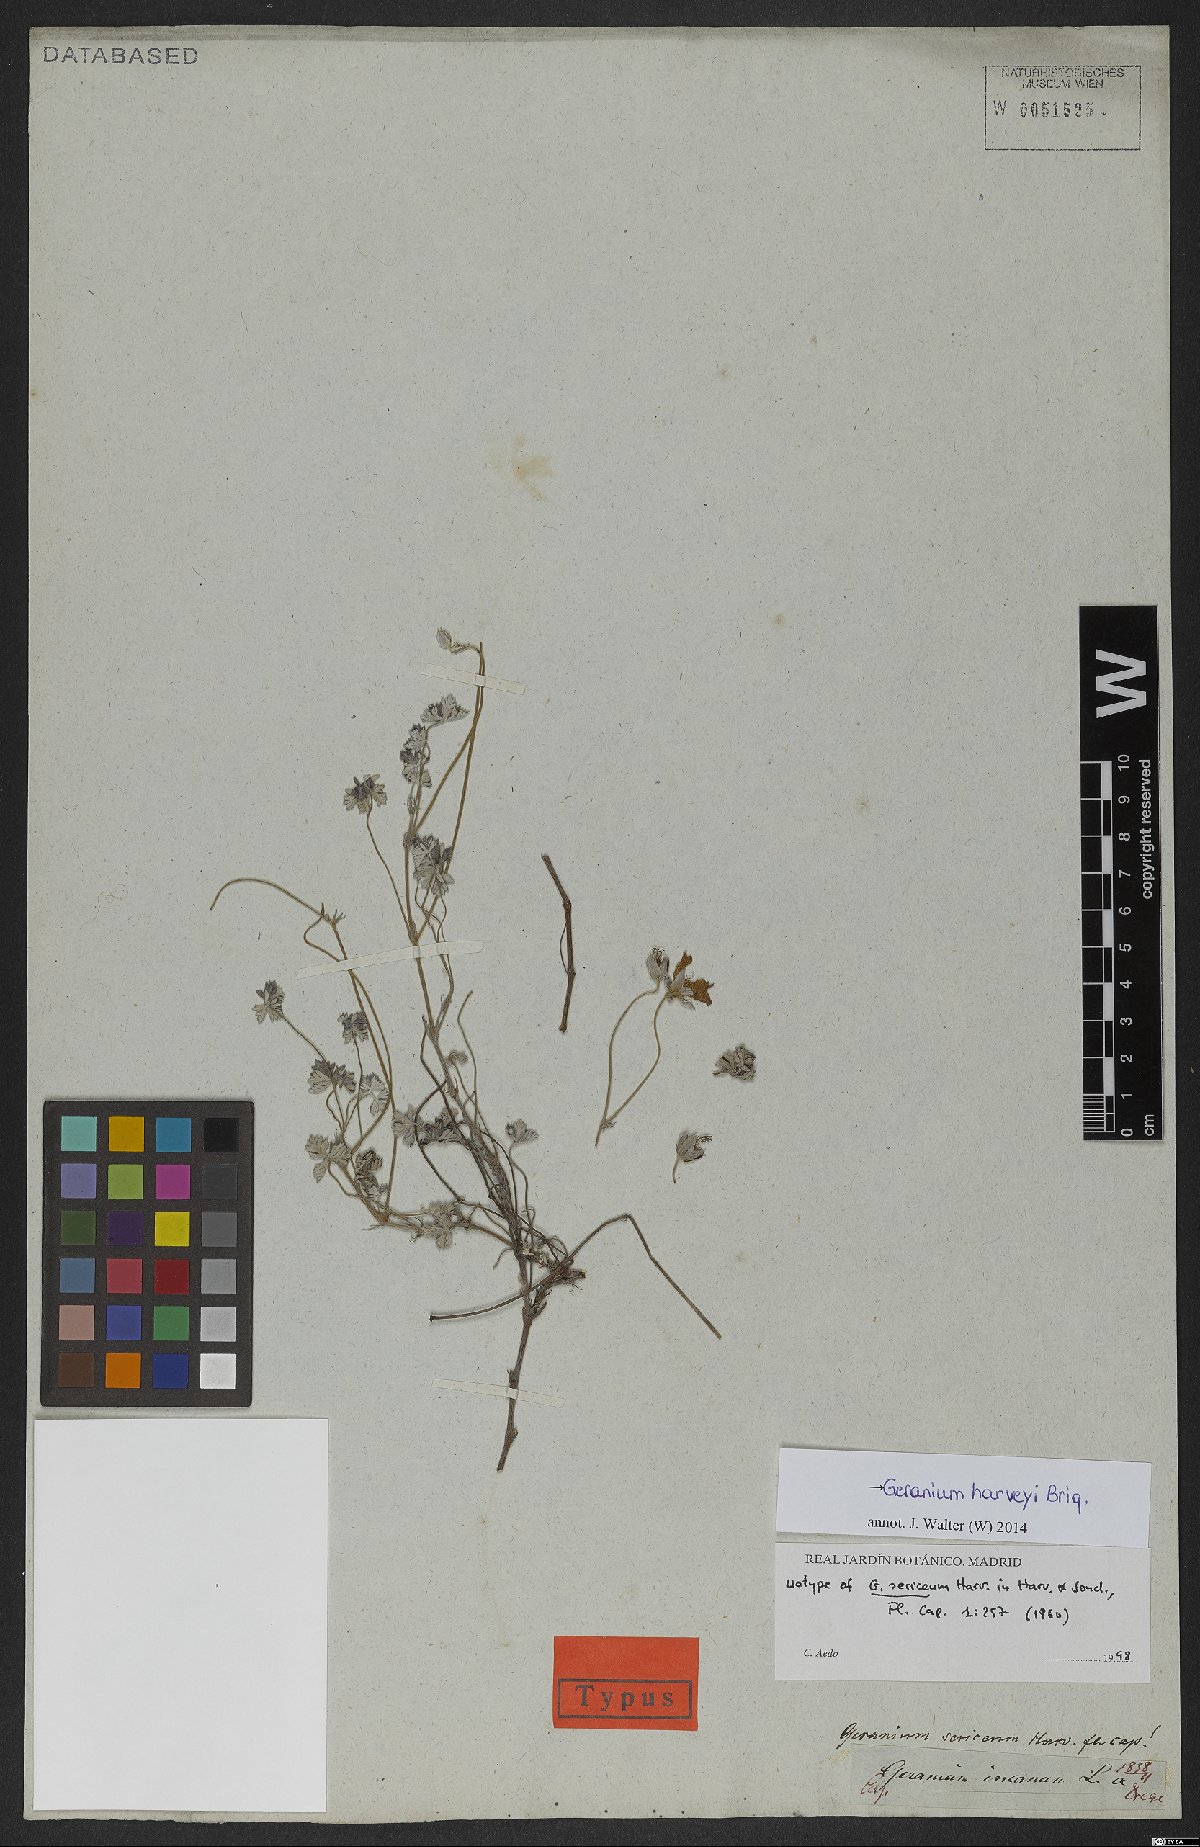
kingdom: Plantae
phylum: Tracheophyta
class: Magnoliopsida
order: Geraniales
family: Geraniaceae
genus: Geranium
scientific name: Geranium harveyi
